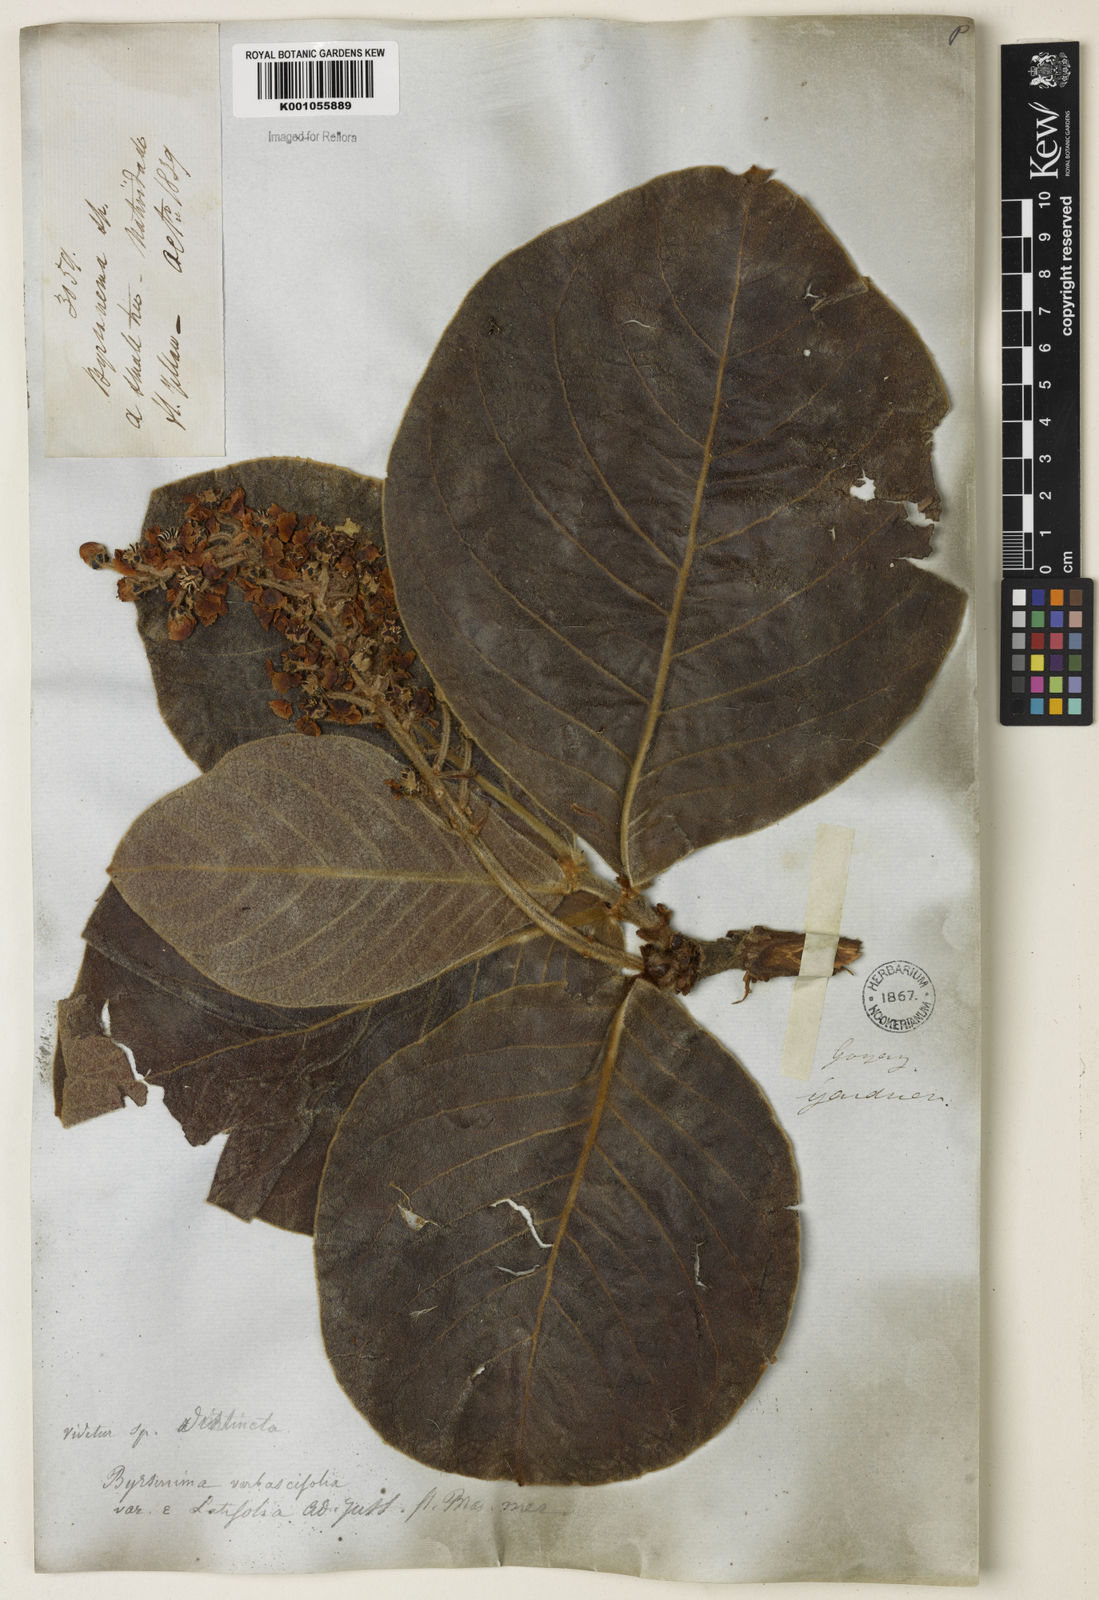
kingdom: Plantae
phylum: Tracheophyta
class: Magnoliopsida
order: Malpighiales
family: Malpighiaceae
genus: Byrsonima
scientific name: Byrsonima verbascifolia
